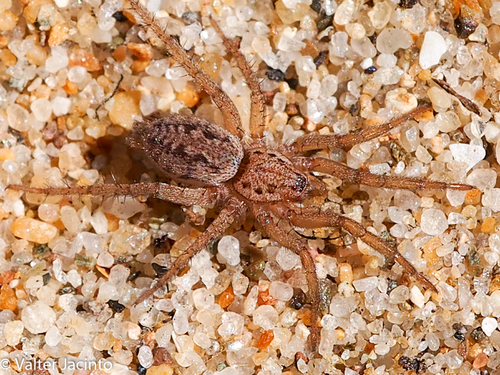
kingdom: Animalia
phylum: Arthropoda
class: Arachnida
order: Araneae
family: Gnaphosidae
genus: Berlandina
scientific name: Berlandina plumalis
